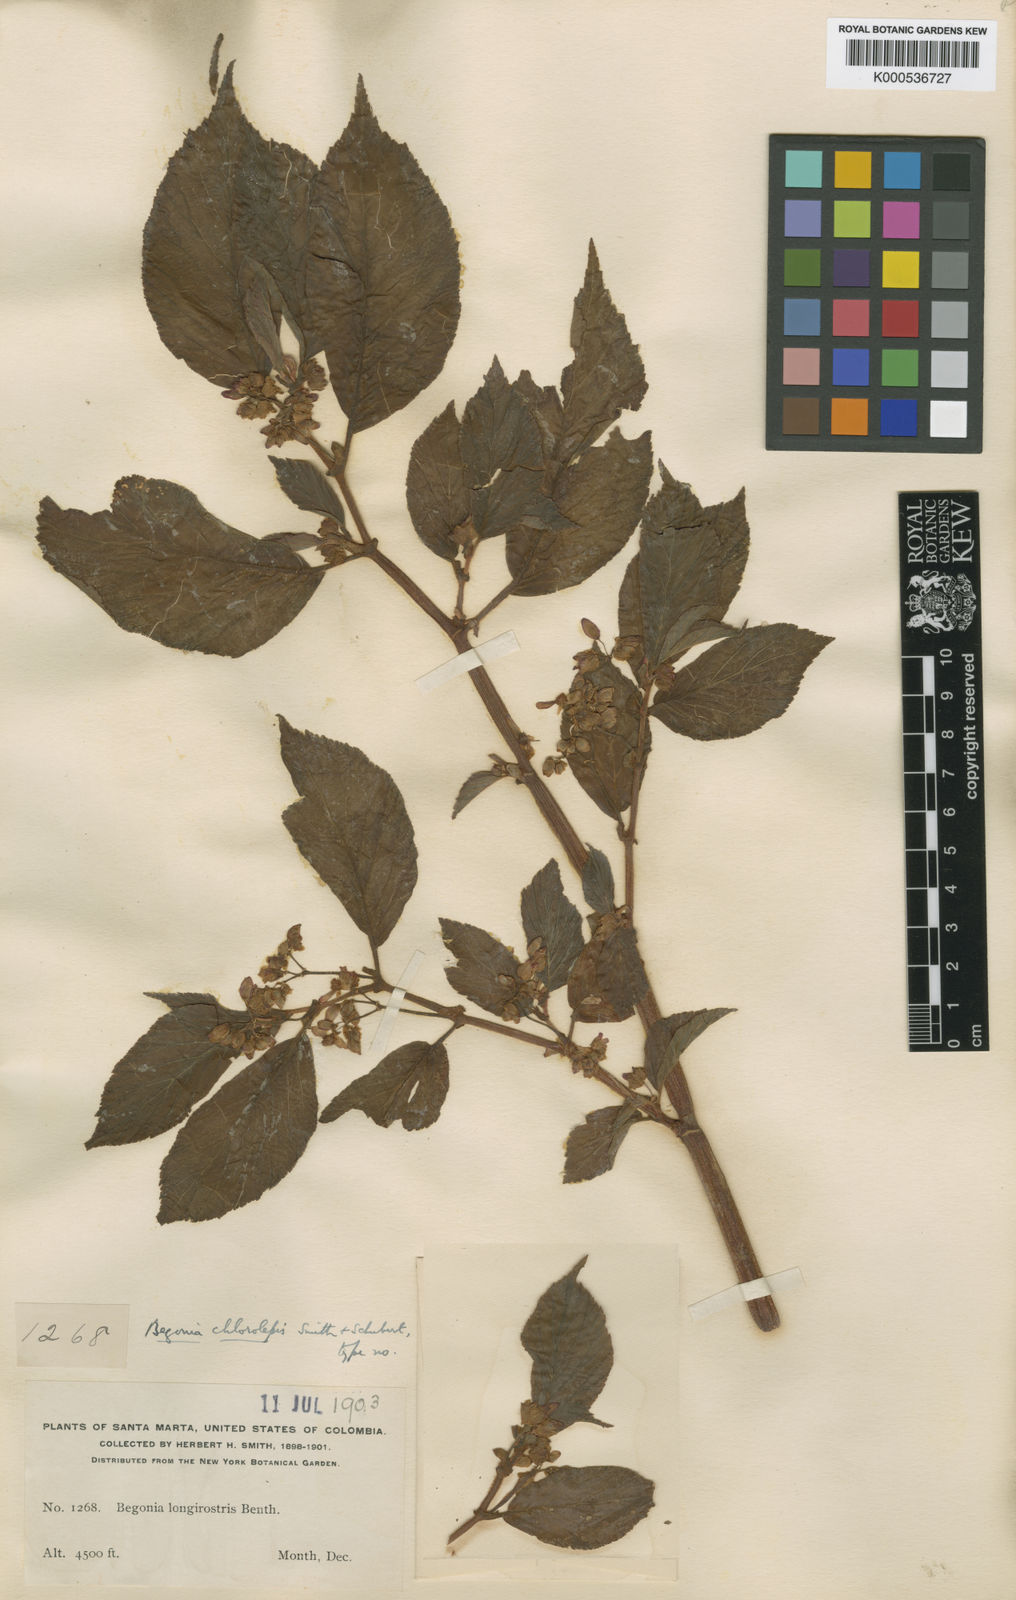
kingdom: Plantae
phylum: Tracheophyta
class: Magnoliopsida
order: Cucurbitales
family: Begoniaceae
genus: Begonia
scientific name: Begonia chlorolepis
